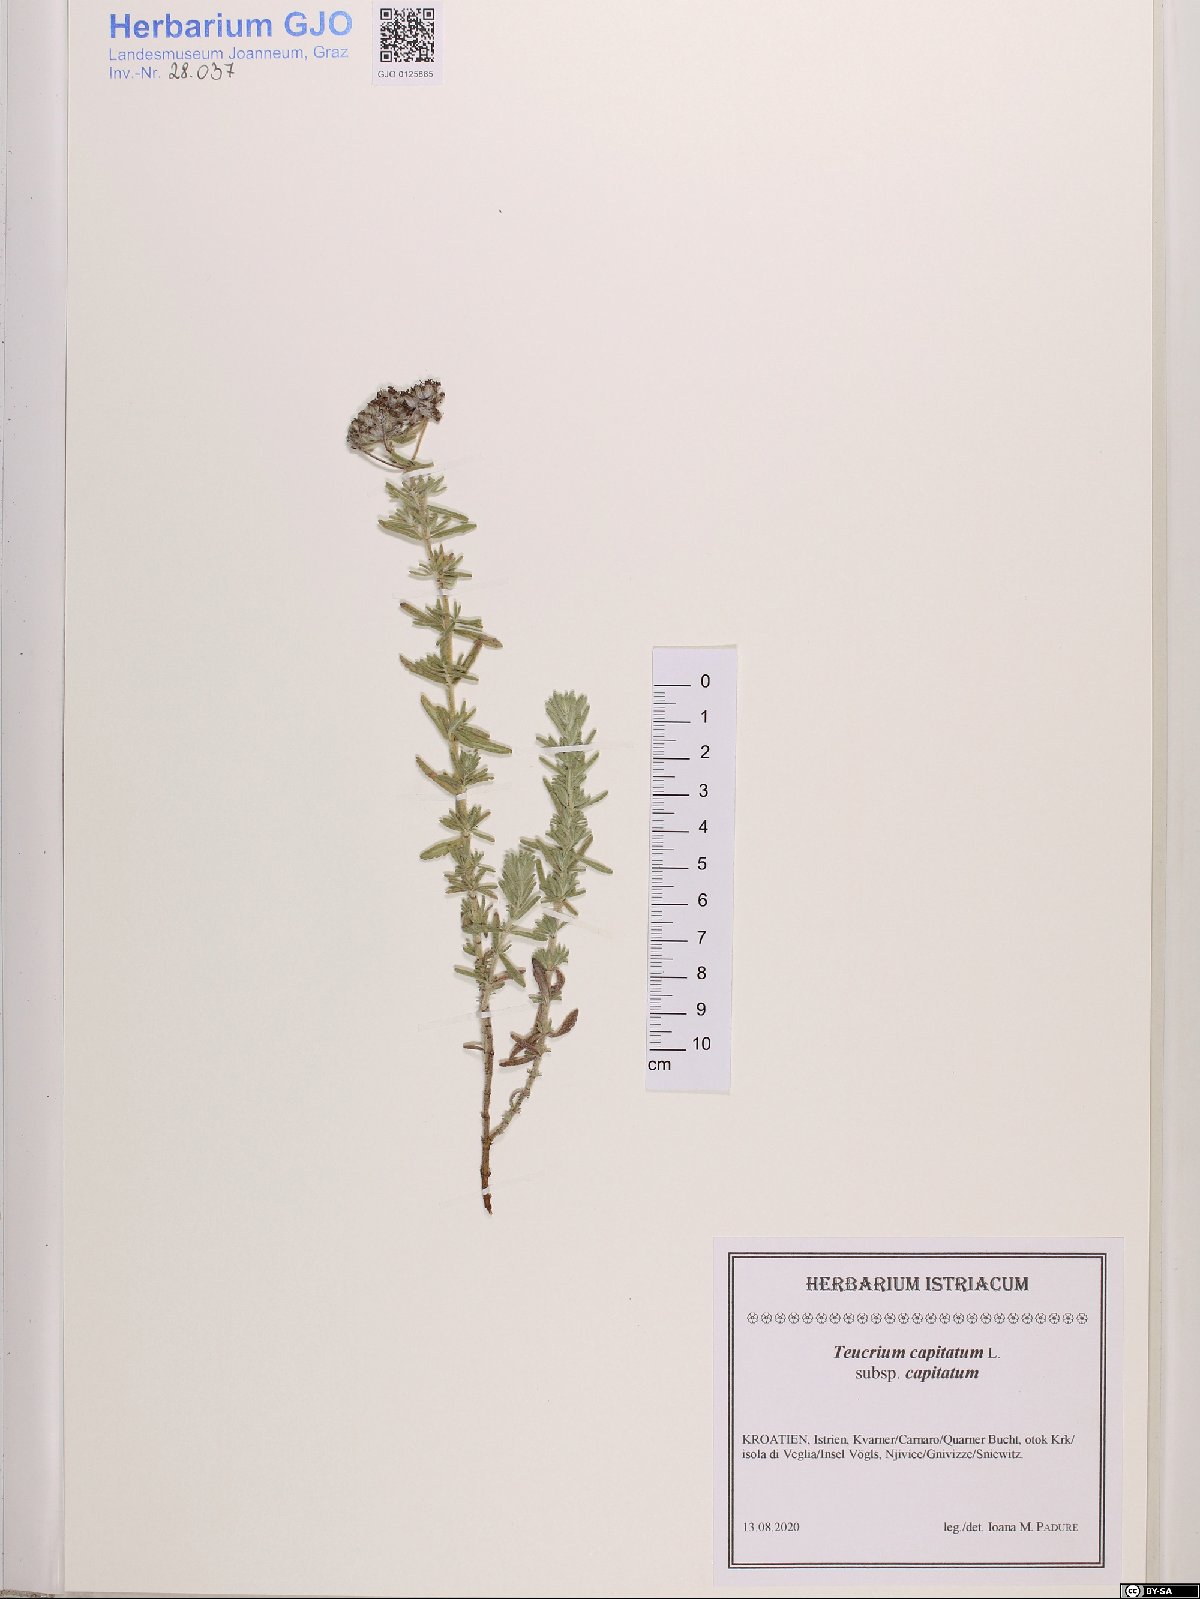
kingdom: Plantae
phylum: Tracheophyta
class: Magnoliopsida
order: Lamiales
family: Lamiaceae
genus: Teucrium
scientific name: Teucrium capitatum
